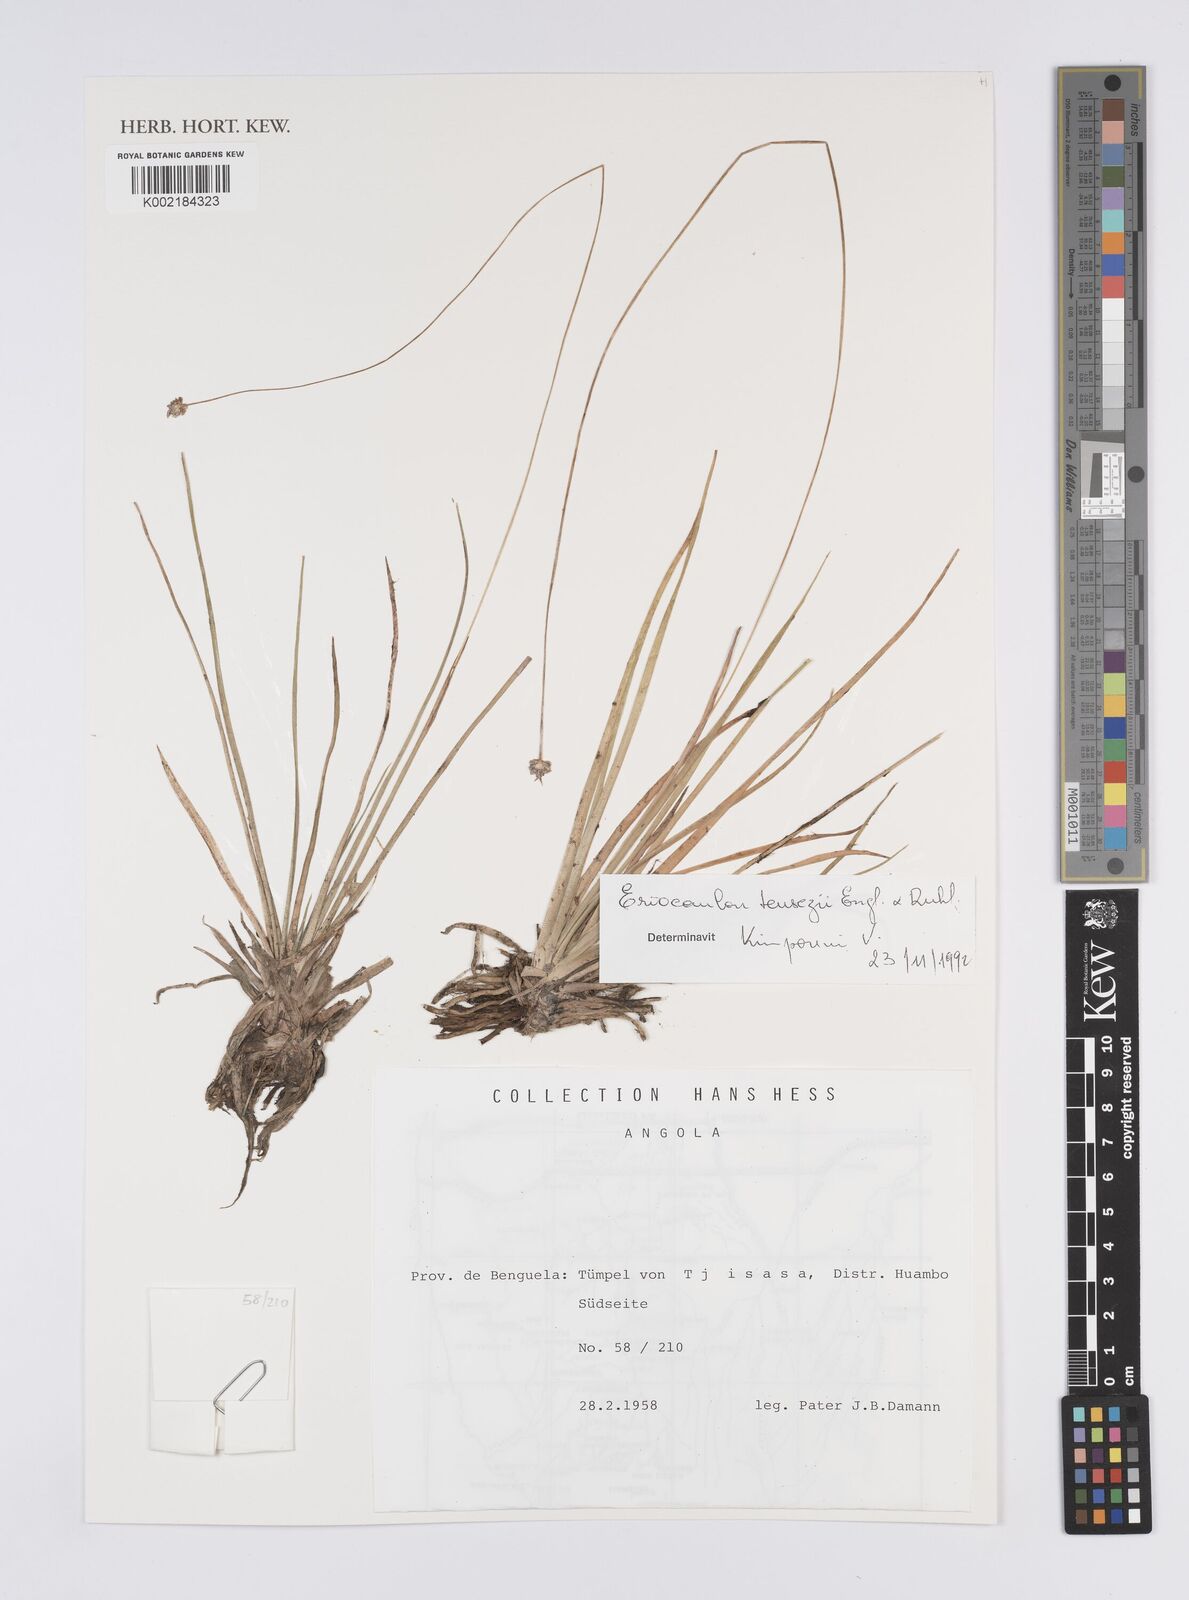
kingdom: Plantae
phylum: Tracheophyta
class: Liliopsida
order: Poales
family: Eriocaulaceae
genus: Eriocaulon
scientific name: Eriocaulon teusczii
